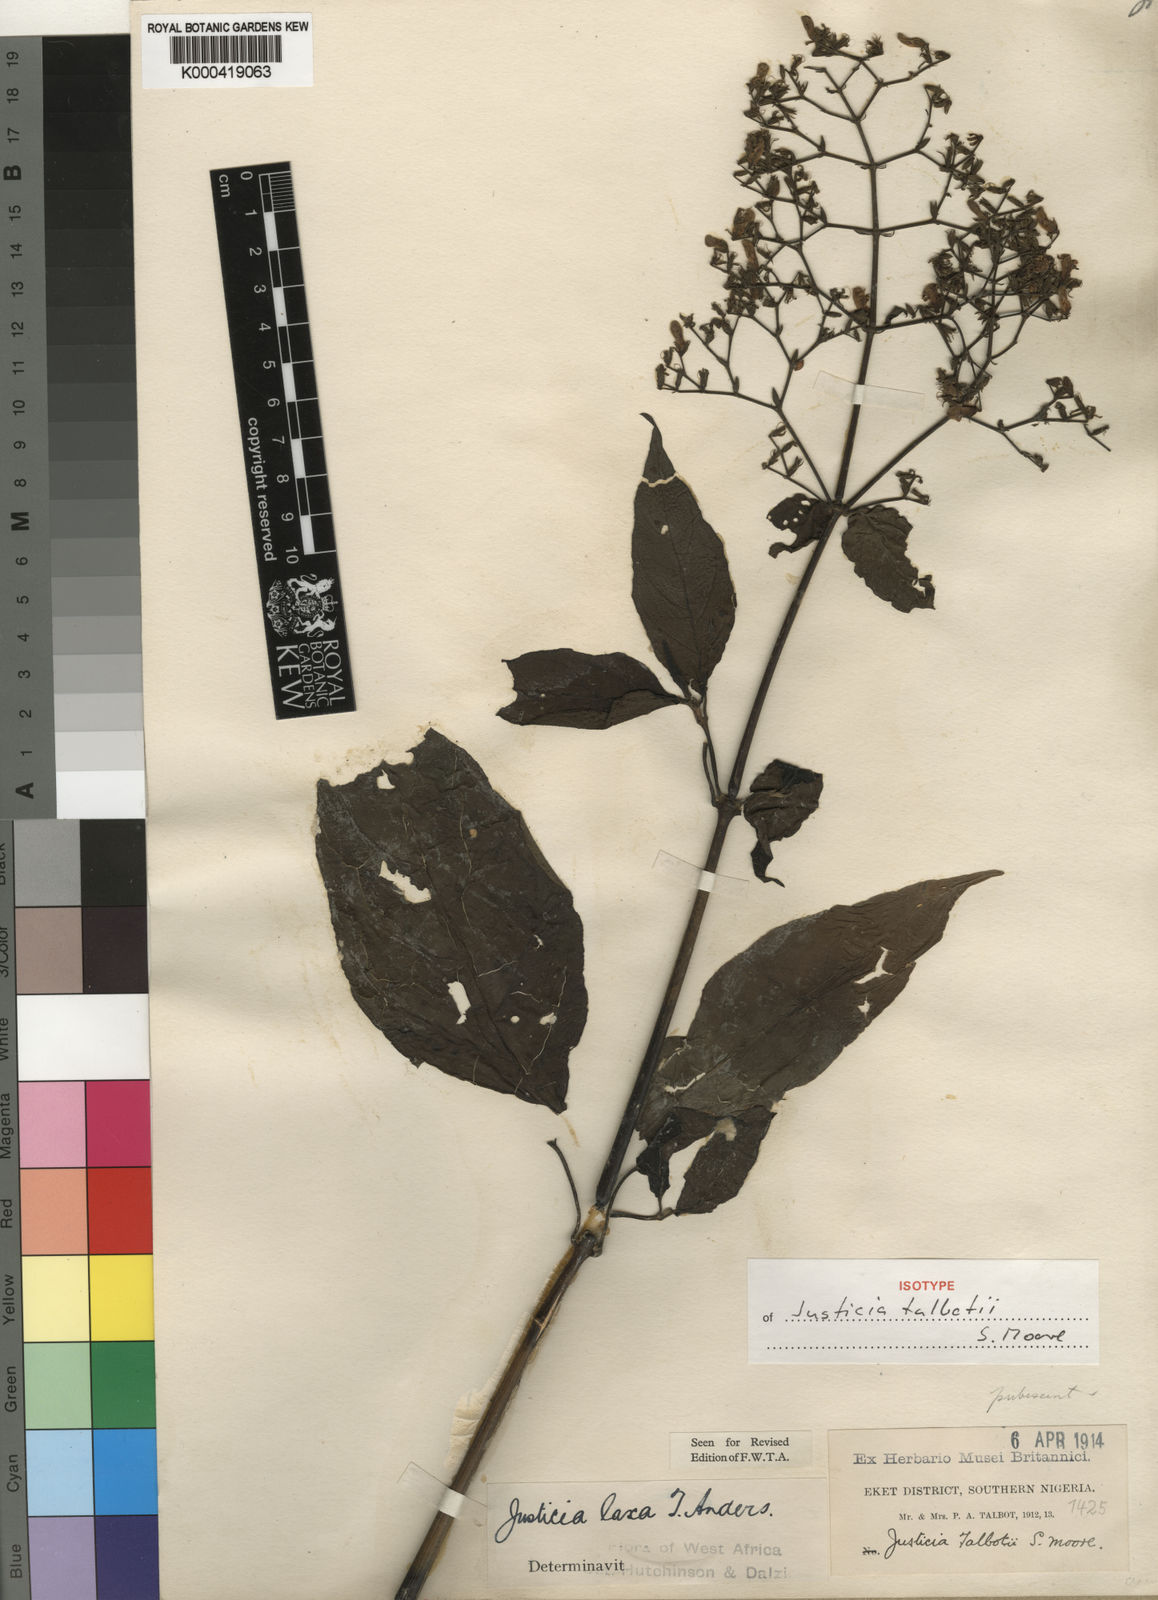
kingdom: Plantae
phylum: Tracheophyta
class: Magnoliopsida
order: Lamiales
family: Acanthaceae
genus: Justicia
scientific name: Justicia extensa
